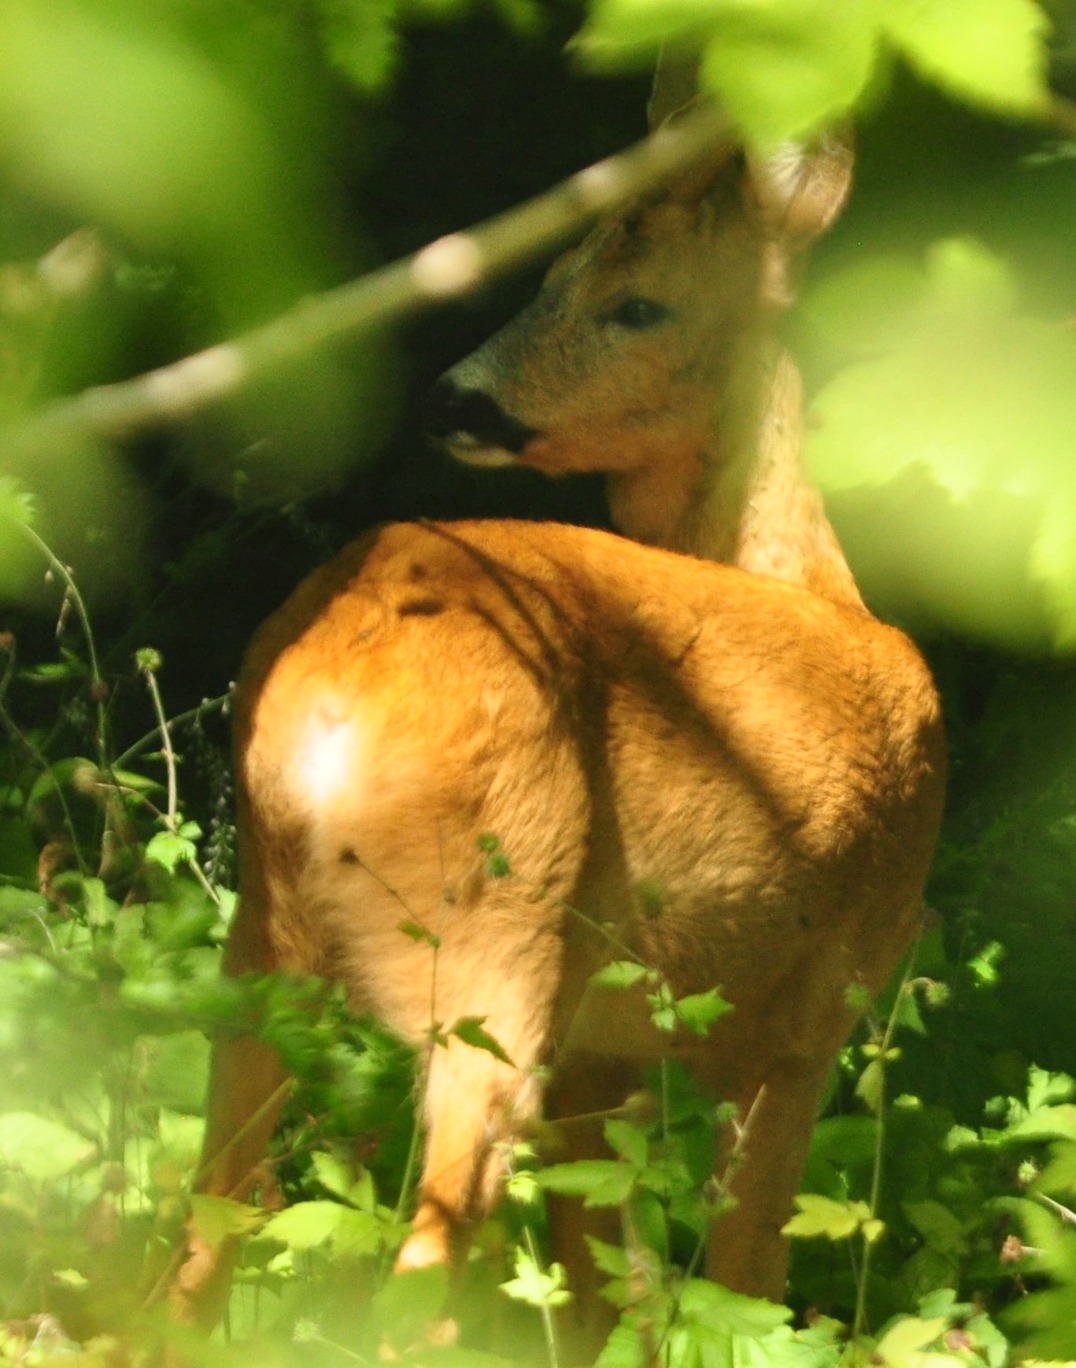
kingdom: Animalia
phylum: Chordata
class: Mammalia
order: Artiodactyla
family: Cervidae
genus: Capreolus
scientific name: Capreolus capreolus
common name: Rådyr
